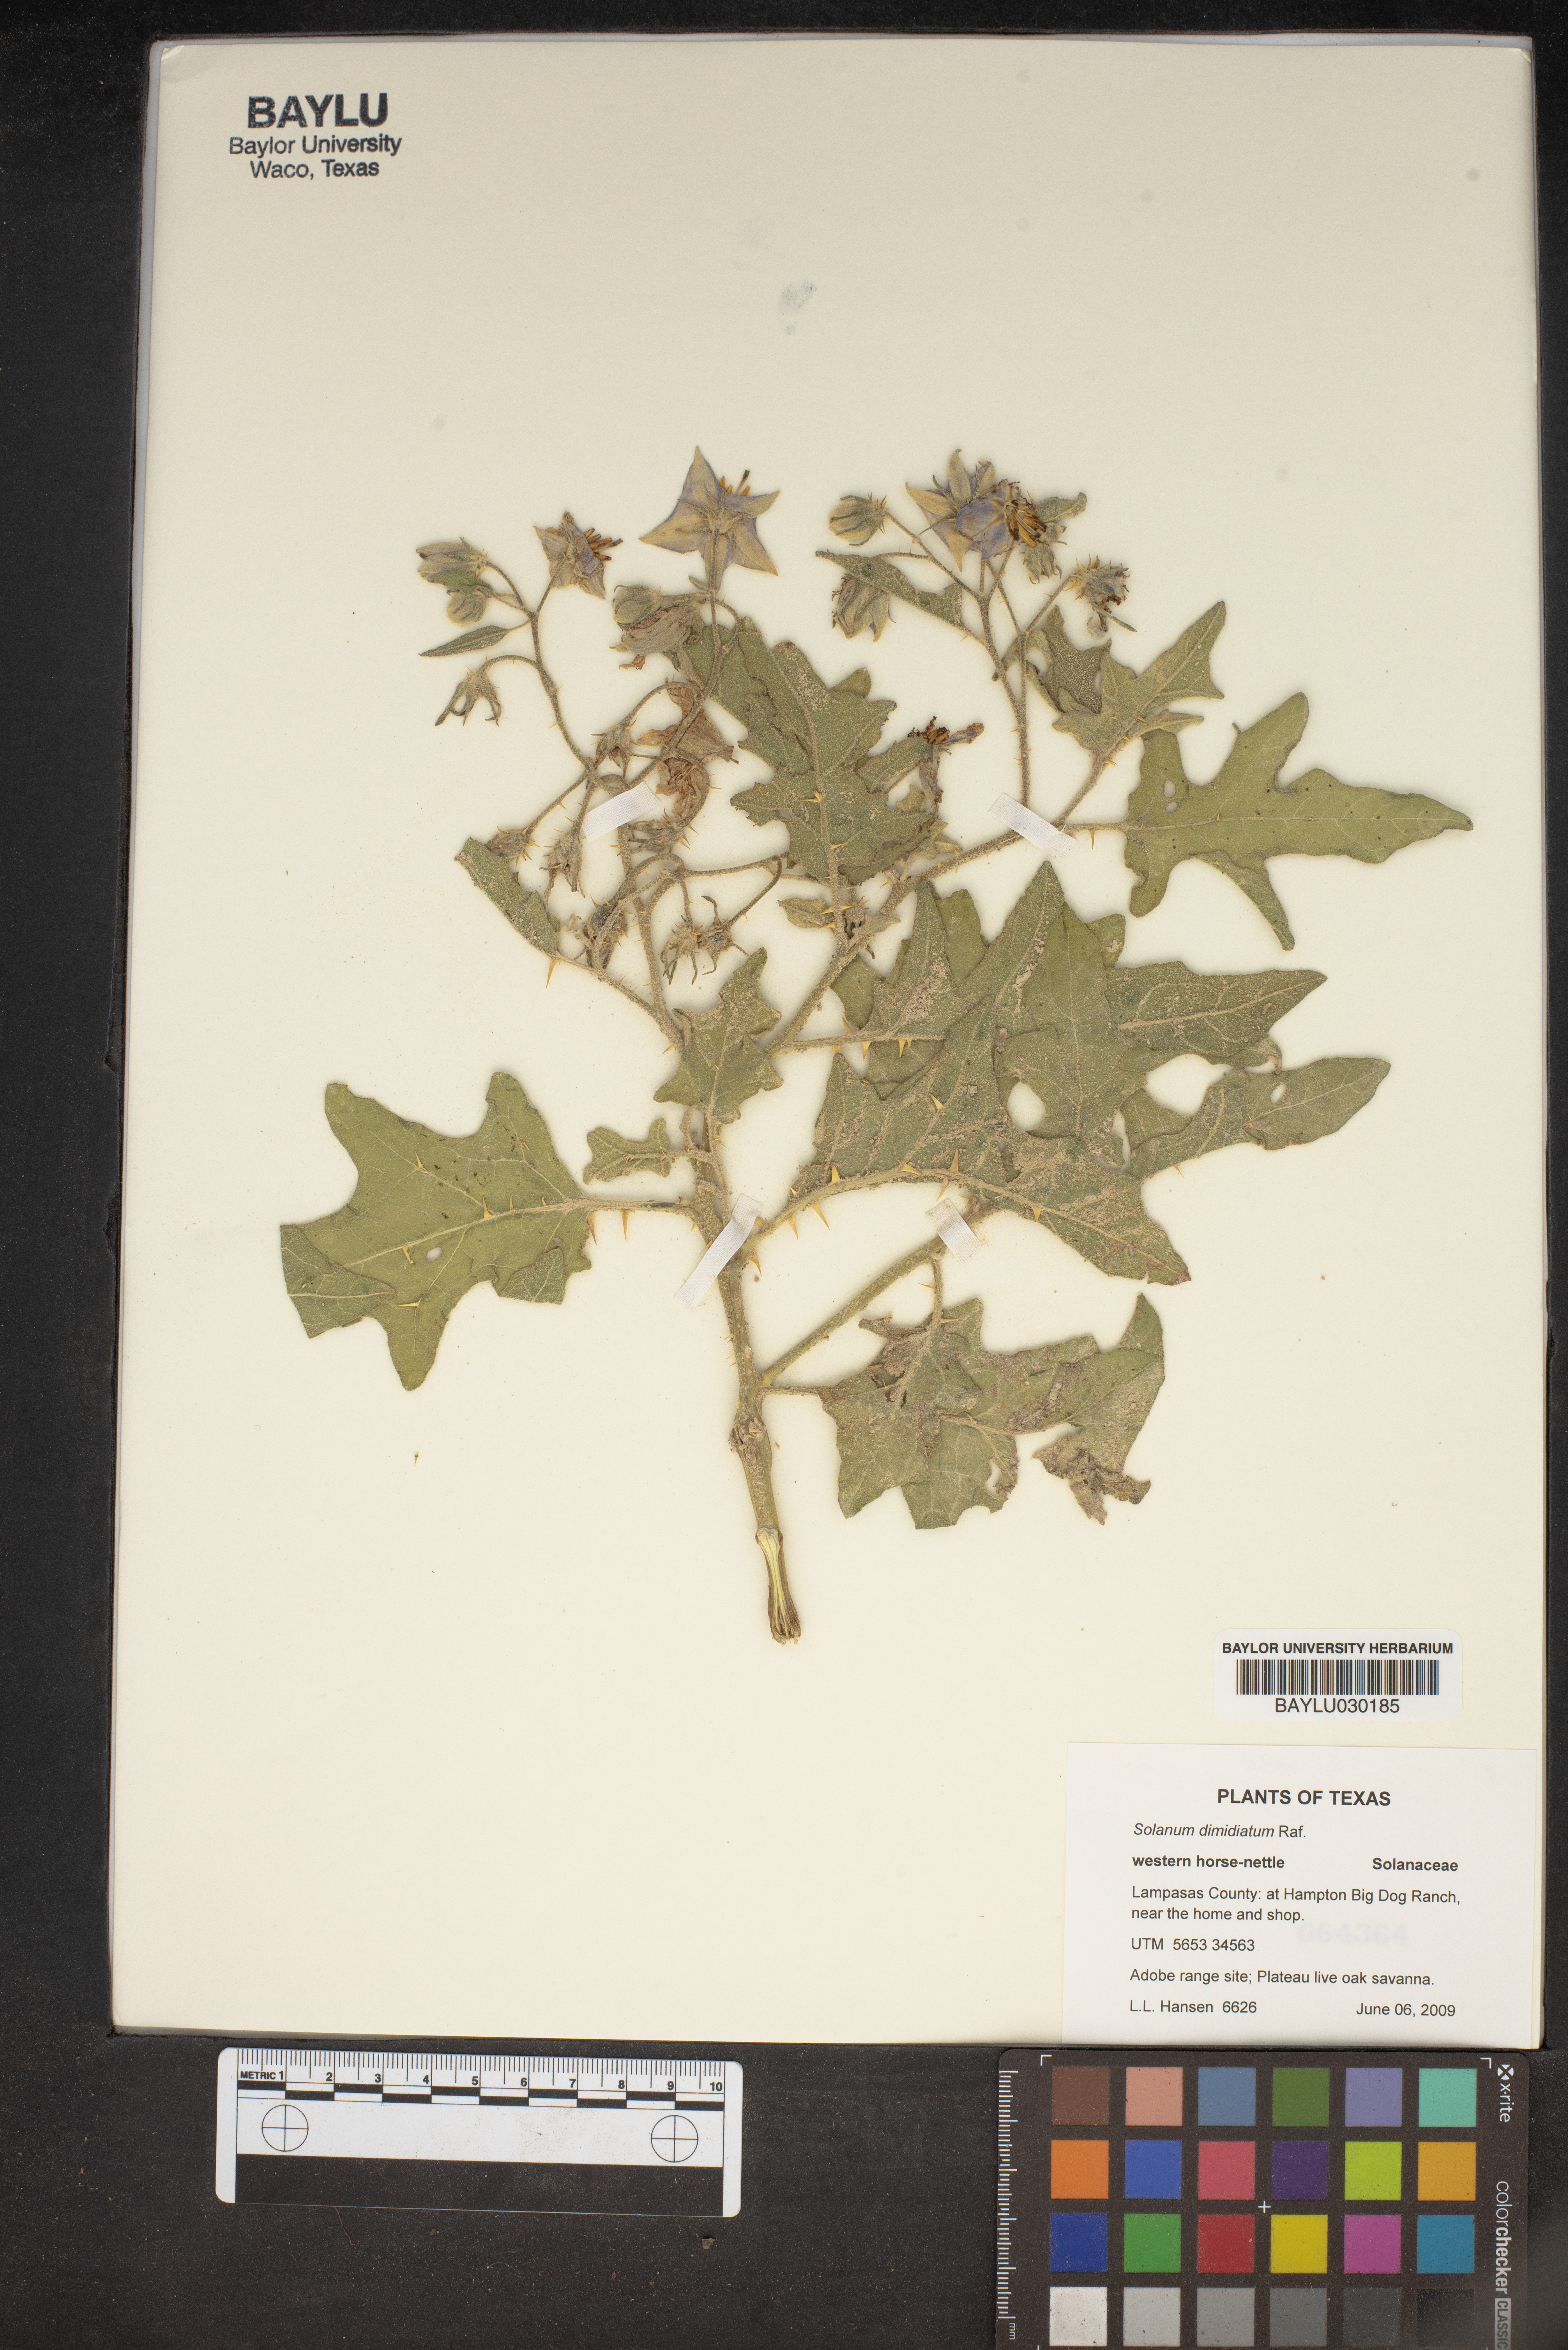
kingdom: Plantae
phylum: Tracheophyta
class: Magnoliopsida
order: Solanales
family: Solanaceae
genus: Solanum
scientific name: Solanum dimidiatum
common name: Carolina horse-nettle
